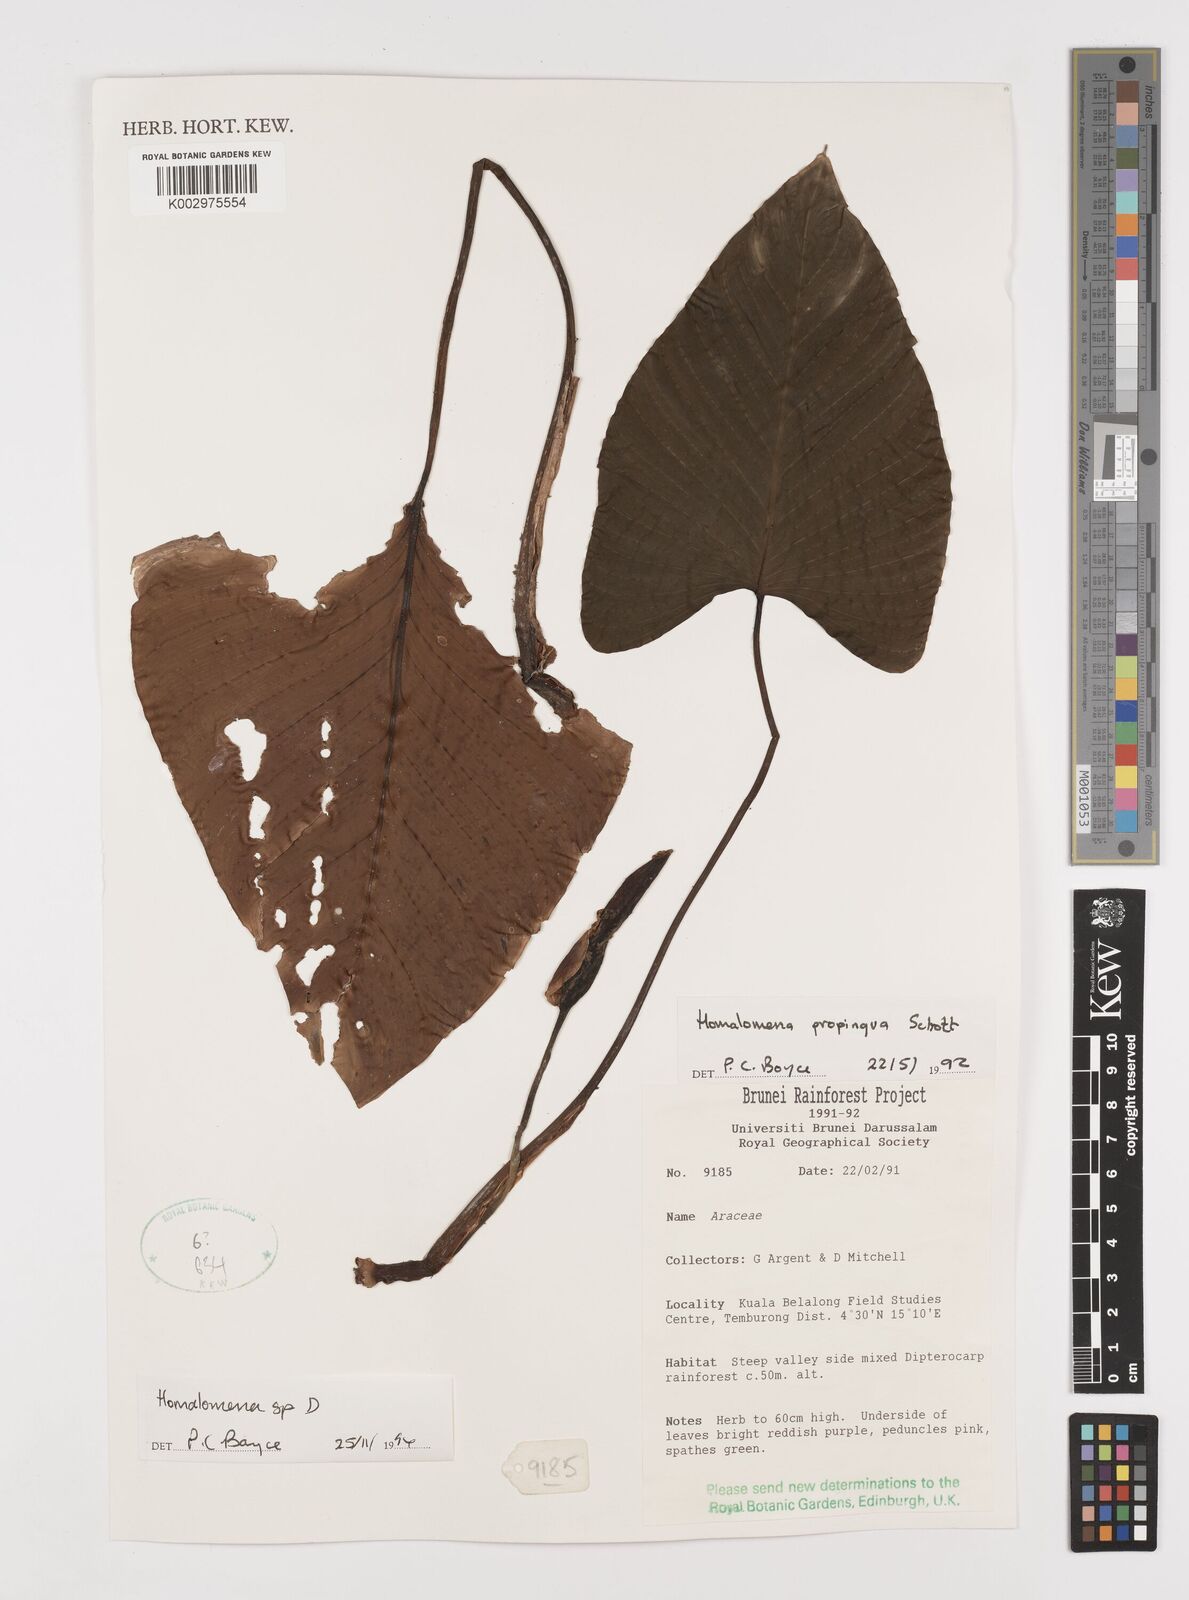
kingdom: Plantae
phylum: Tracheophyta
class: Liliopsida
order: Alismatales
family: Araceae
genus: Homalomena
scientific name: Homalomena
